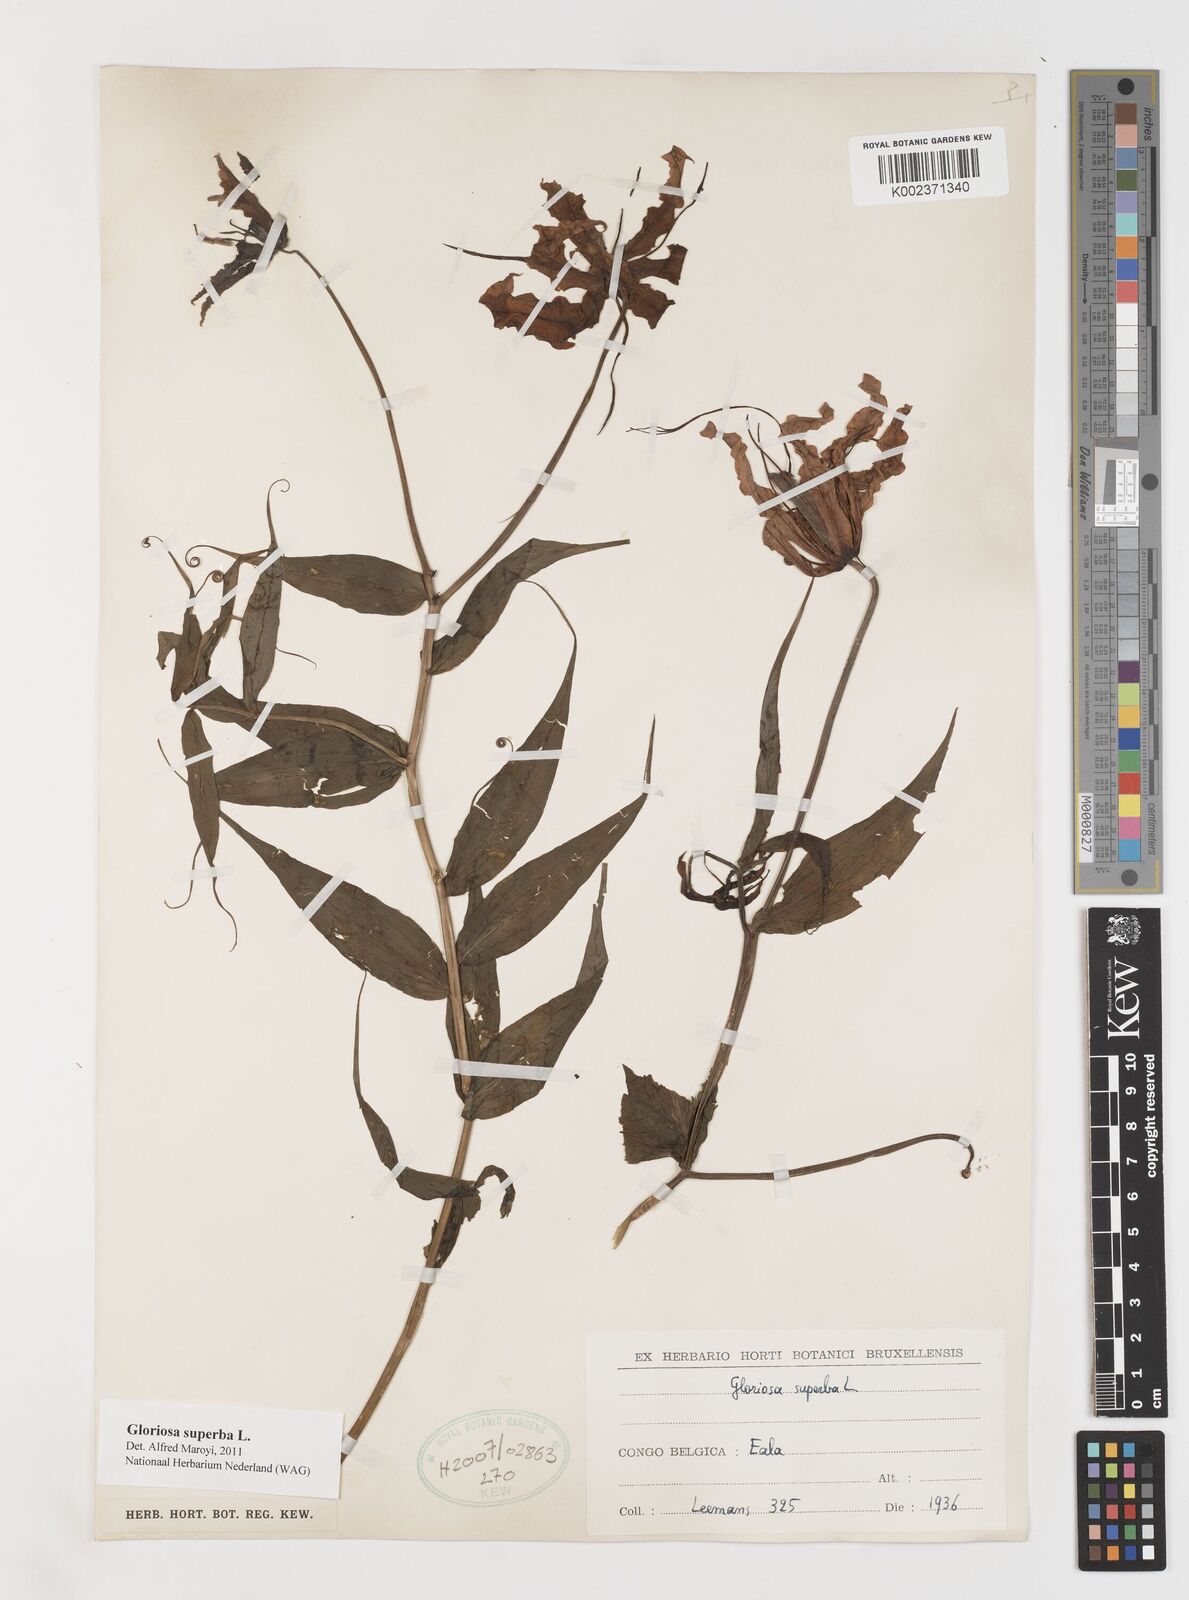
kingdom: Plantae
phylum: Tracheophyta
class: Liliopsida
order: Liliales
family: Colchicaceae
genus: Gloriosa
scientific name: Gloriosa superba
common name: Flame lily
